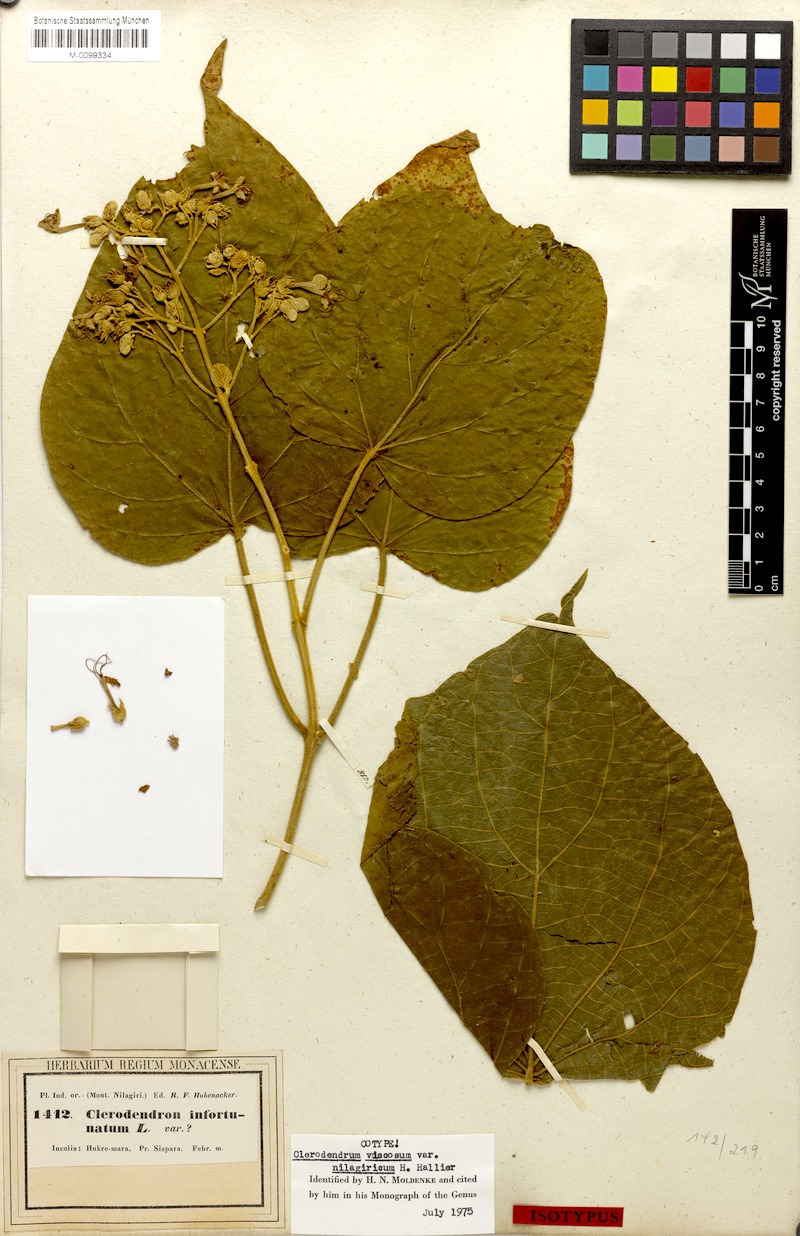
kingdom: Plantae
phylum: Tracheophyta
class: Magnoliopsida
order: Lamiales
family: Lamiaceae
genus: Clerodendrum
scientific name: Clerodendrum infortunatum
